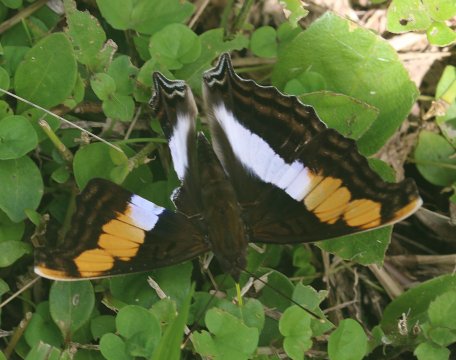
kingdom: Animalia
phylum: Arthropoda
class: Insecta
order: Lepidoptera
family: Nymphalidae
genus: Doxocopa
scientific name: Doxocopa laure
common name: Silver Emperor
